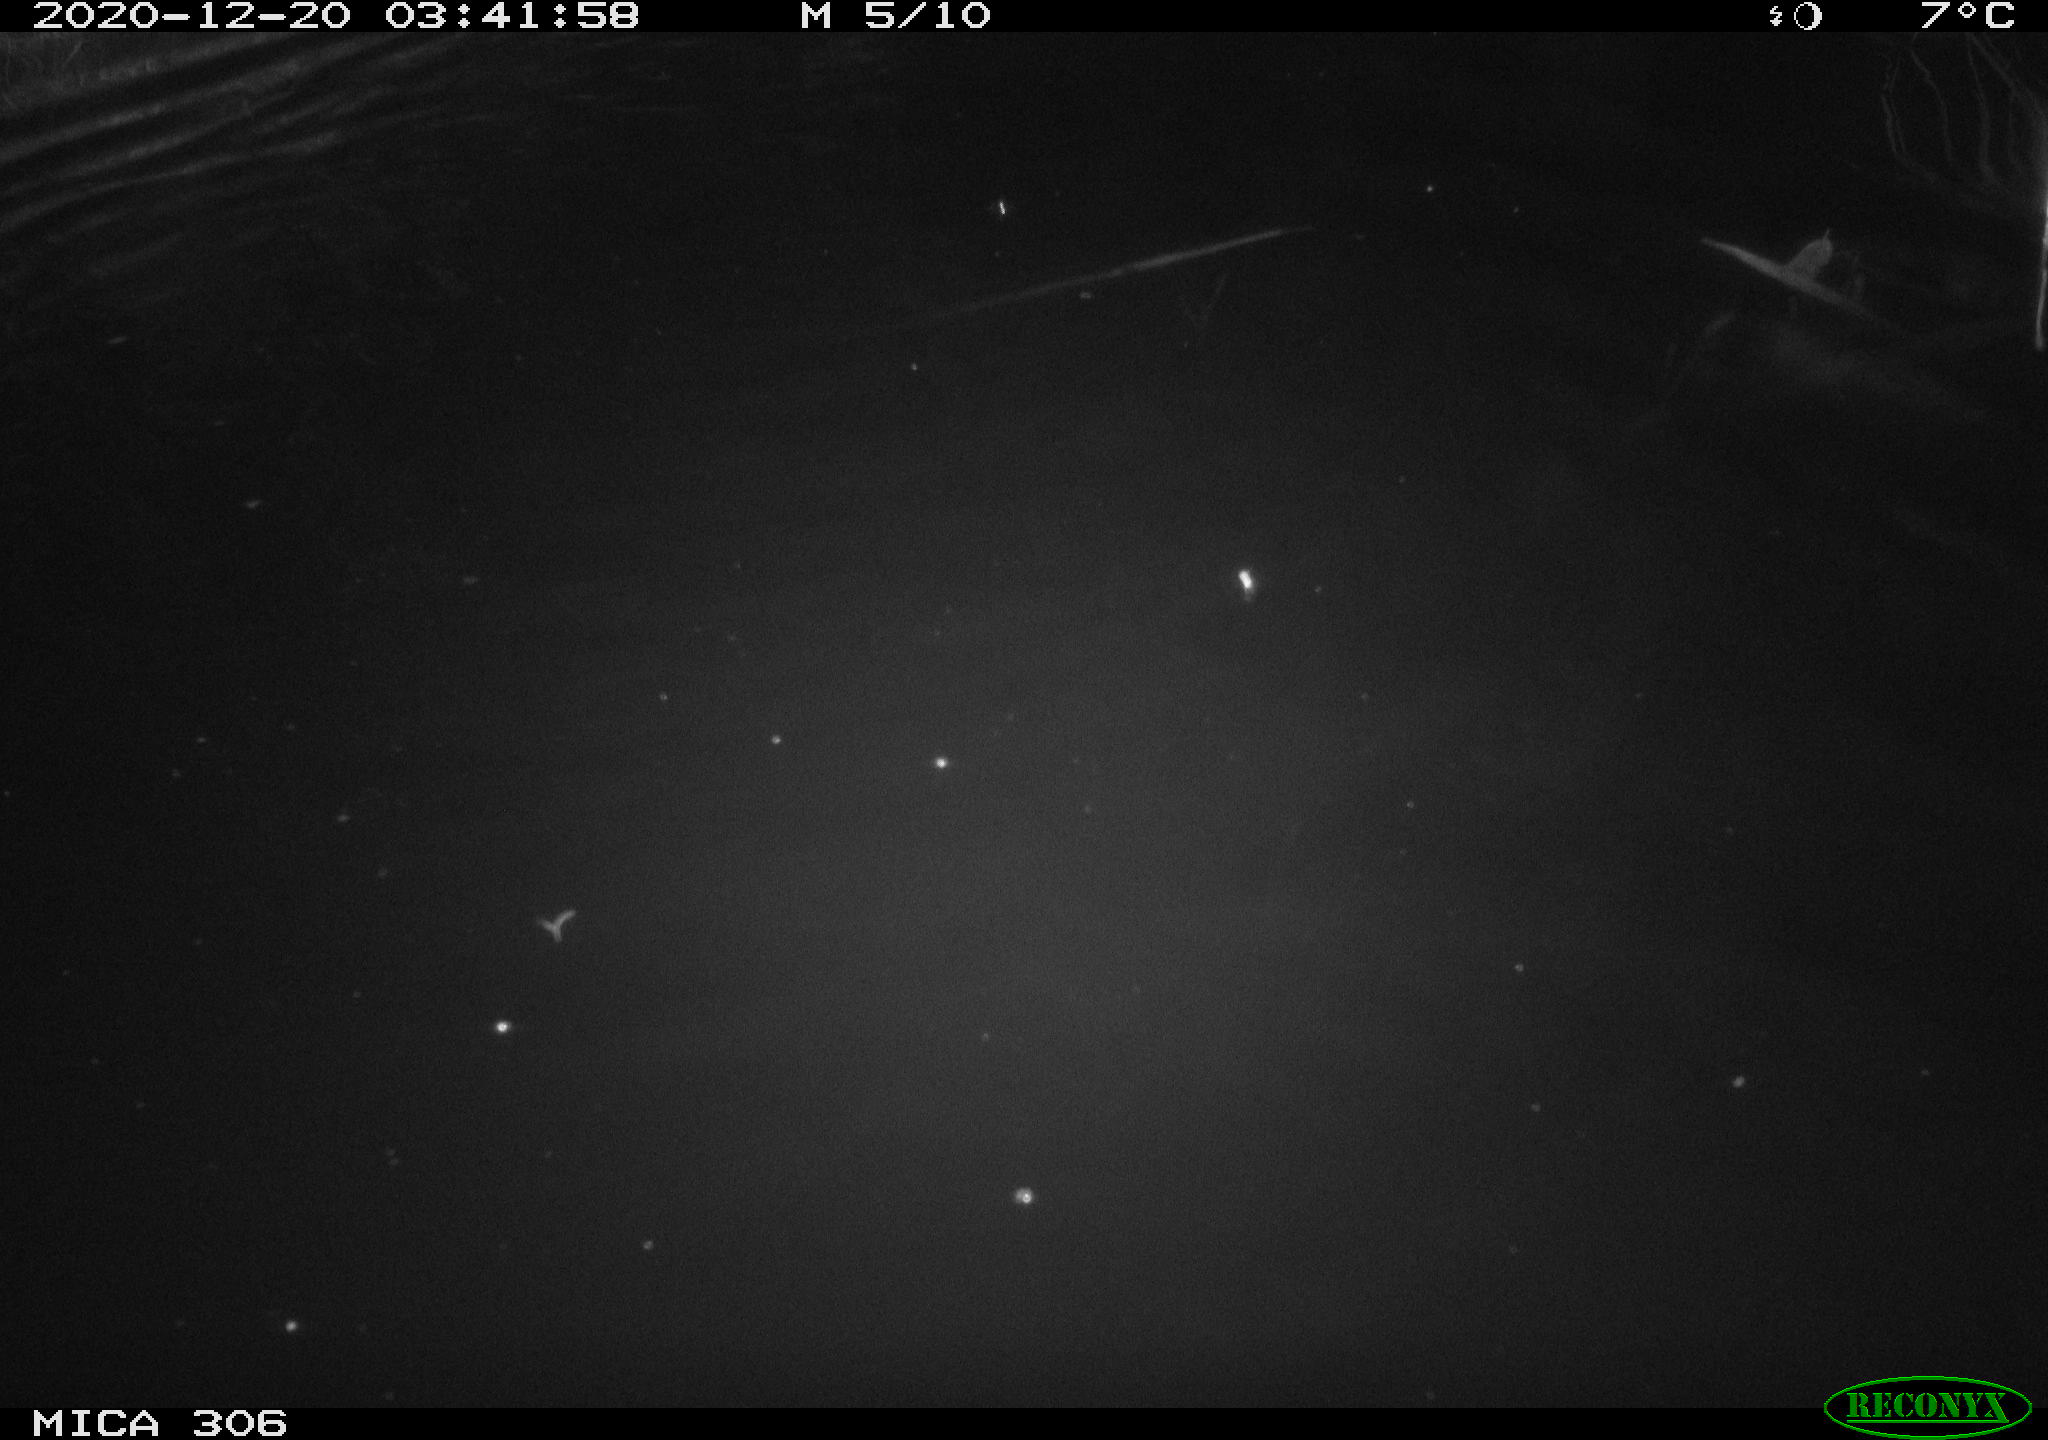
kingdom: Animalia
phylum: Chordata
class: Mammalia
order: Rodentia
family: Cricetidae
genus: Ondatra
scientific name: Ondatra zibethicus
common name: Muskrat
